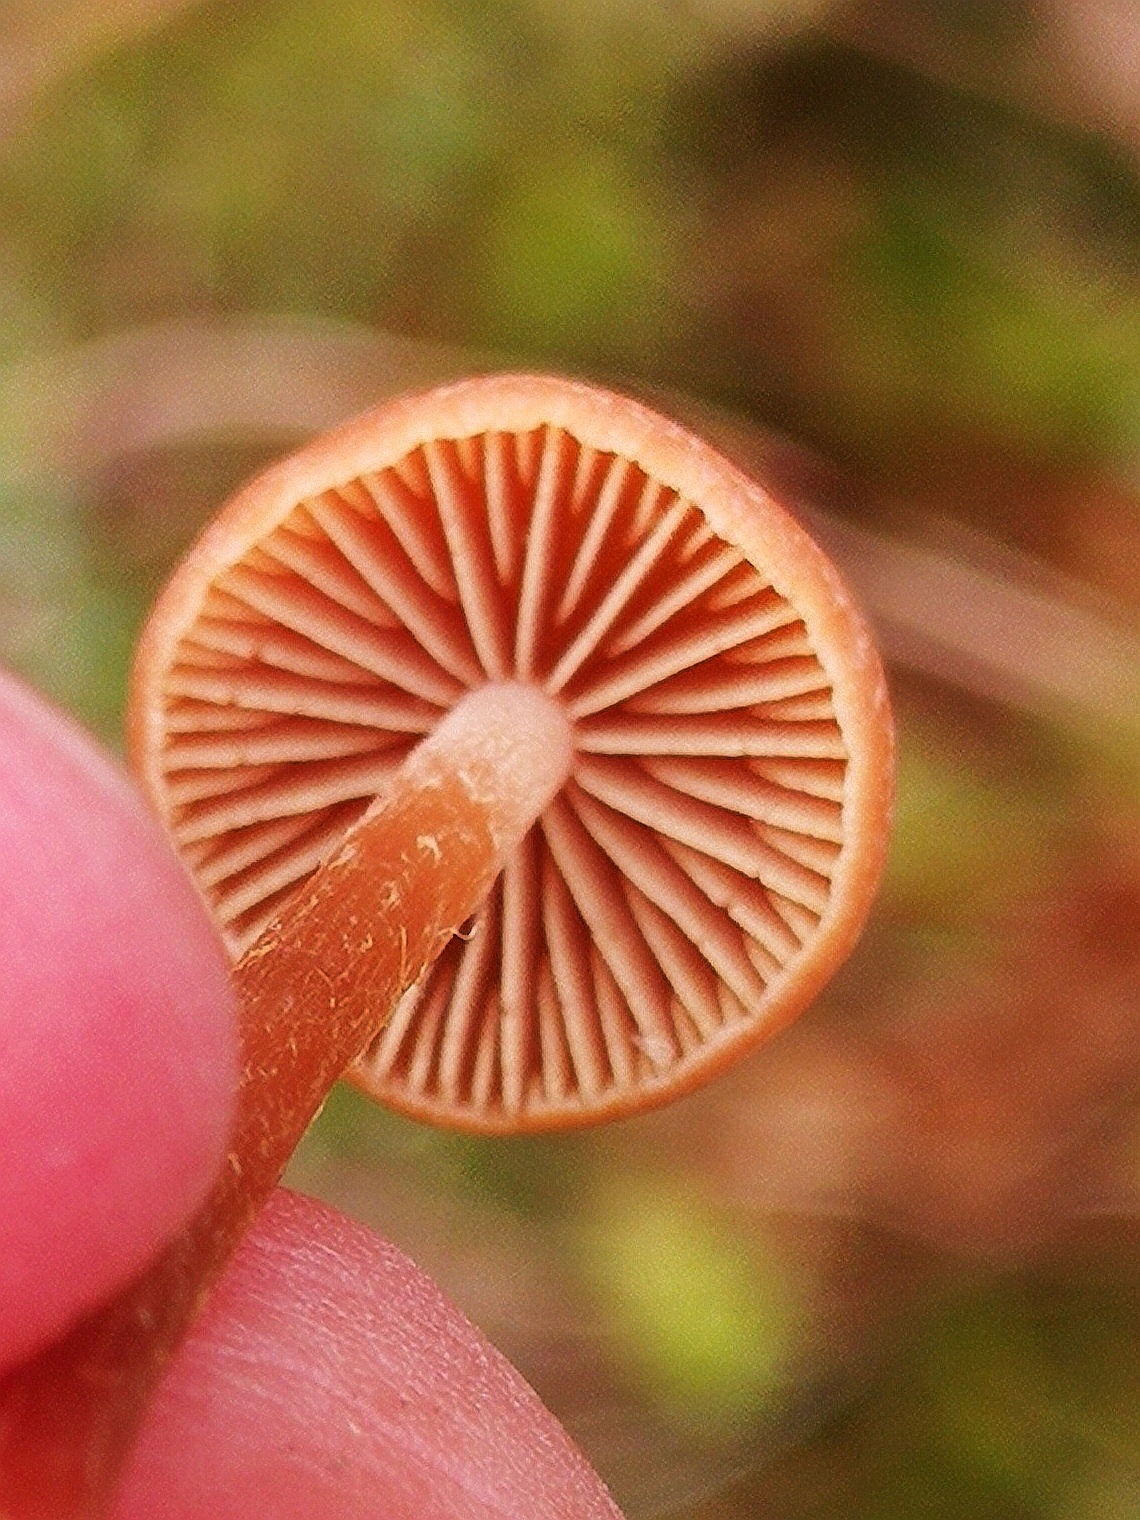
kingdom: Fungi
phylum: Basidiomycota
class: Agaricomycetes
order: Agaricales
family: Hymenogastraceae
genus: Galerina
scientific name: Galerina
